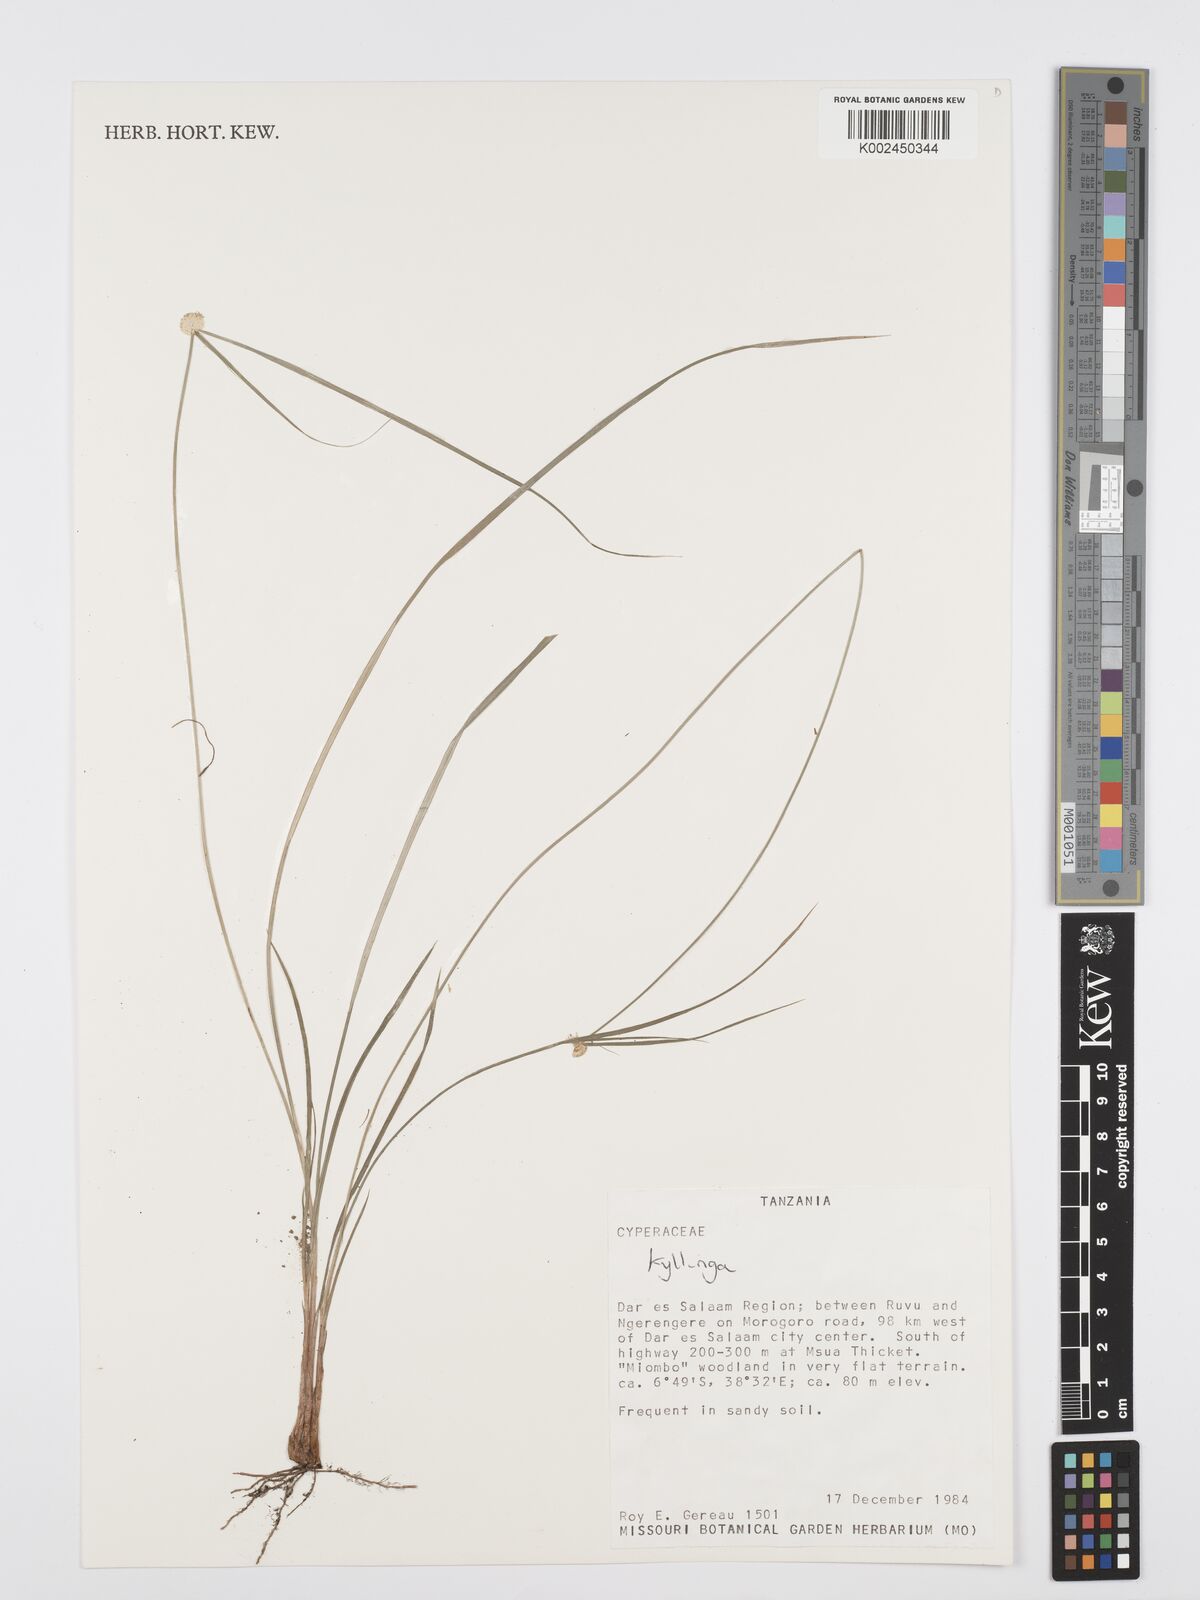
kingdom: Plantae
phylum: Tracheophyta
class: Liliopsida
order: Poales
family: Cyperaceae
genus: Cyperus
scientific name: Cyperus
